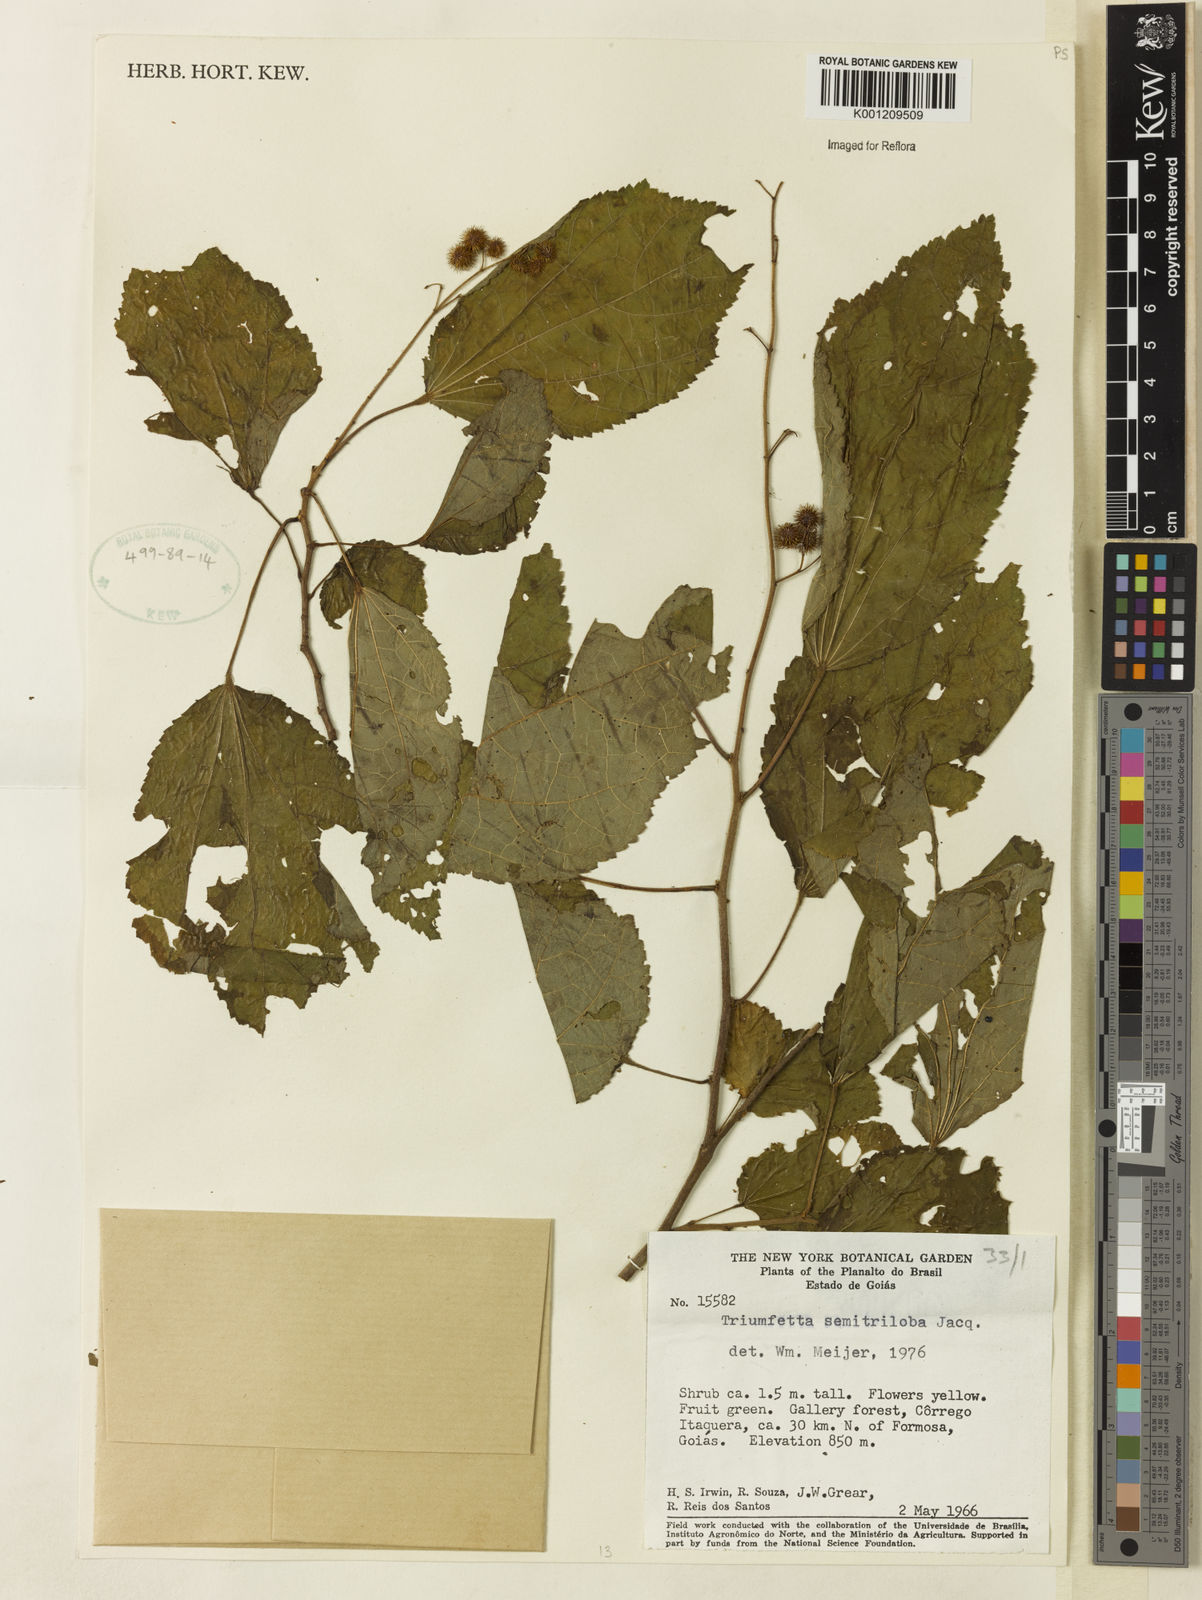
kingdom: Plantae
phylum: Tracheophyta
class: Magnoliopsida
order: Malvales
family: Malvaceae
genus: Triumfetta
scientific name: Triumfetta semitriloba
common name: Sacramento burbark
